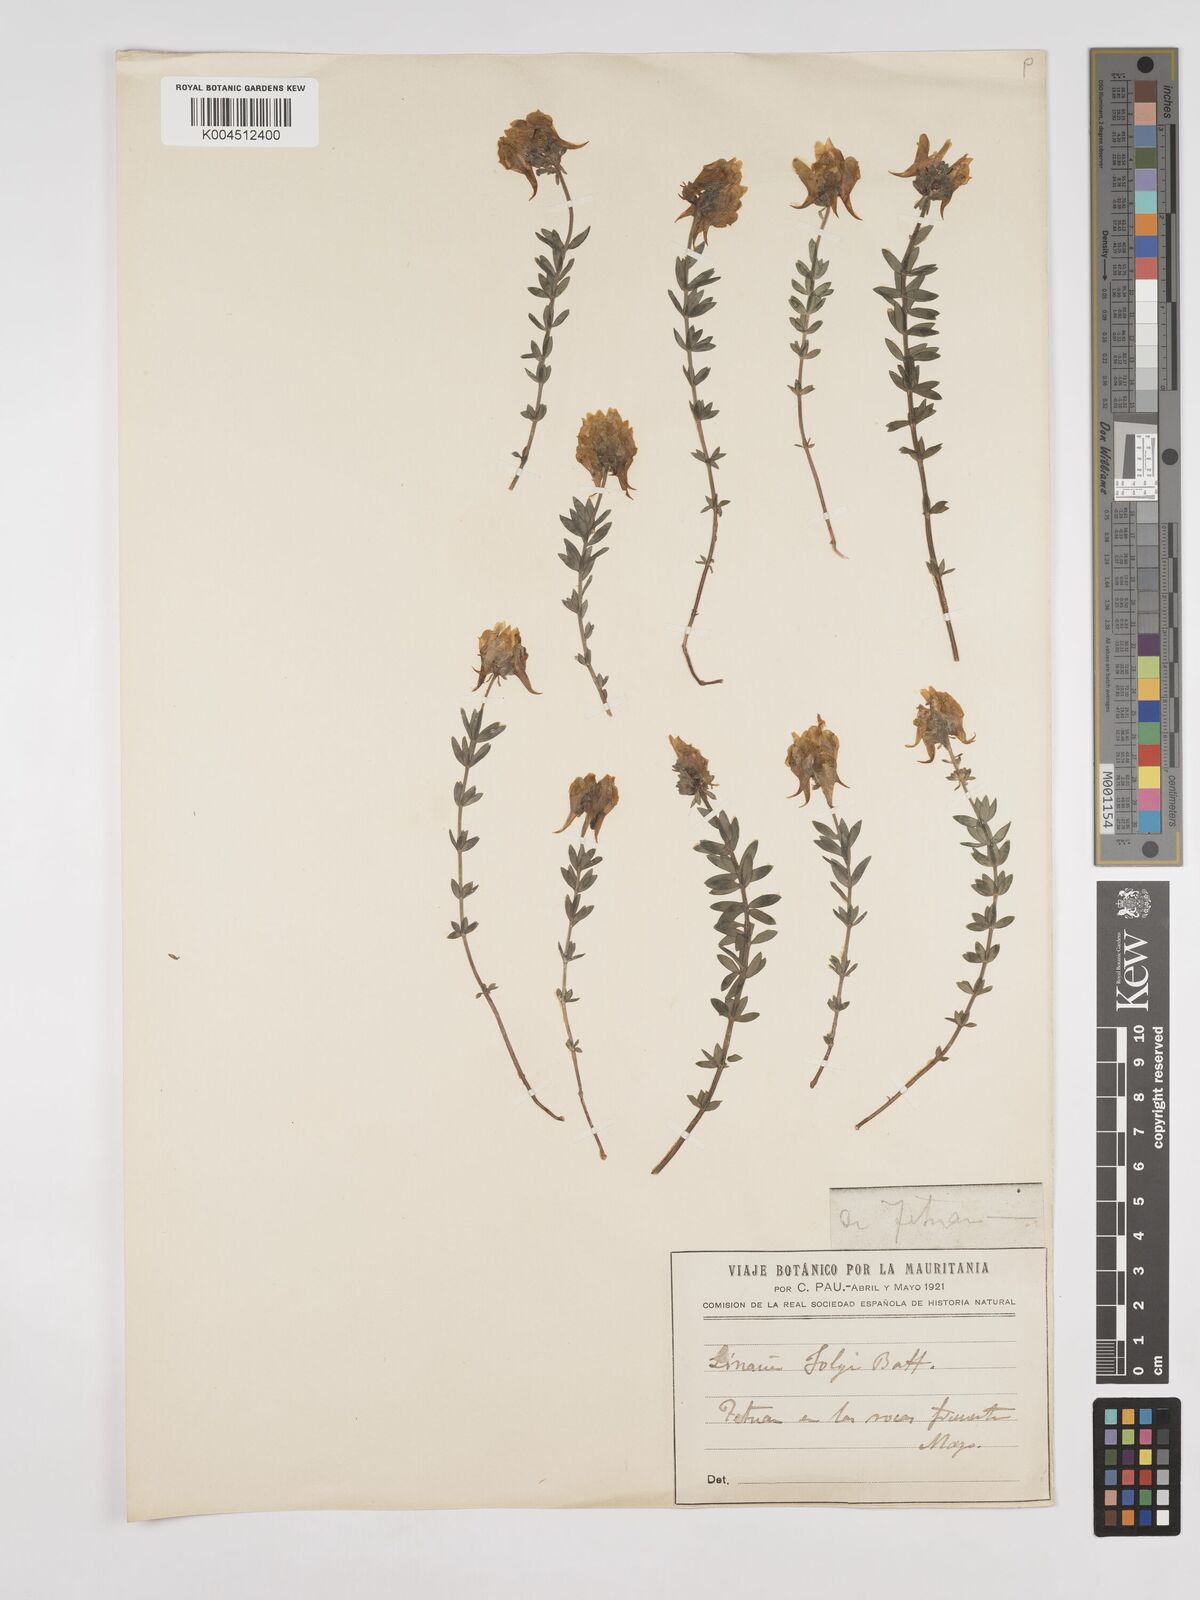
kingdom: Plantae
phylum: Tracheophyta
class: Magnoliopsida
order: Lamiales
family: Plantaginaceae
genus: Linaria
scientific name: Linaria tristis
